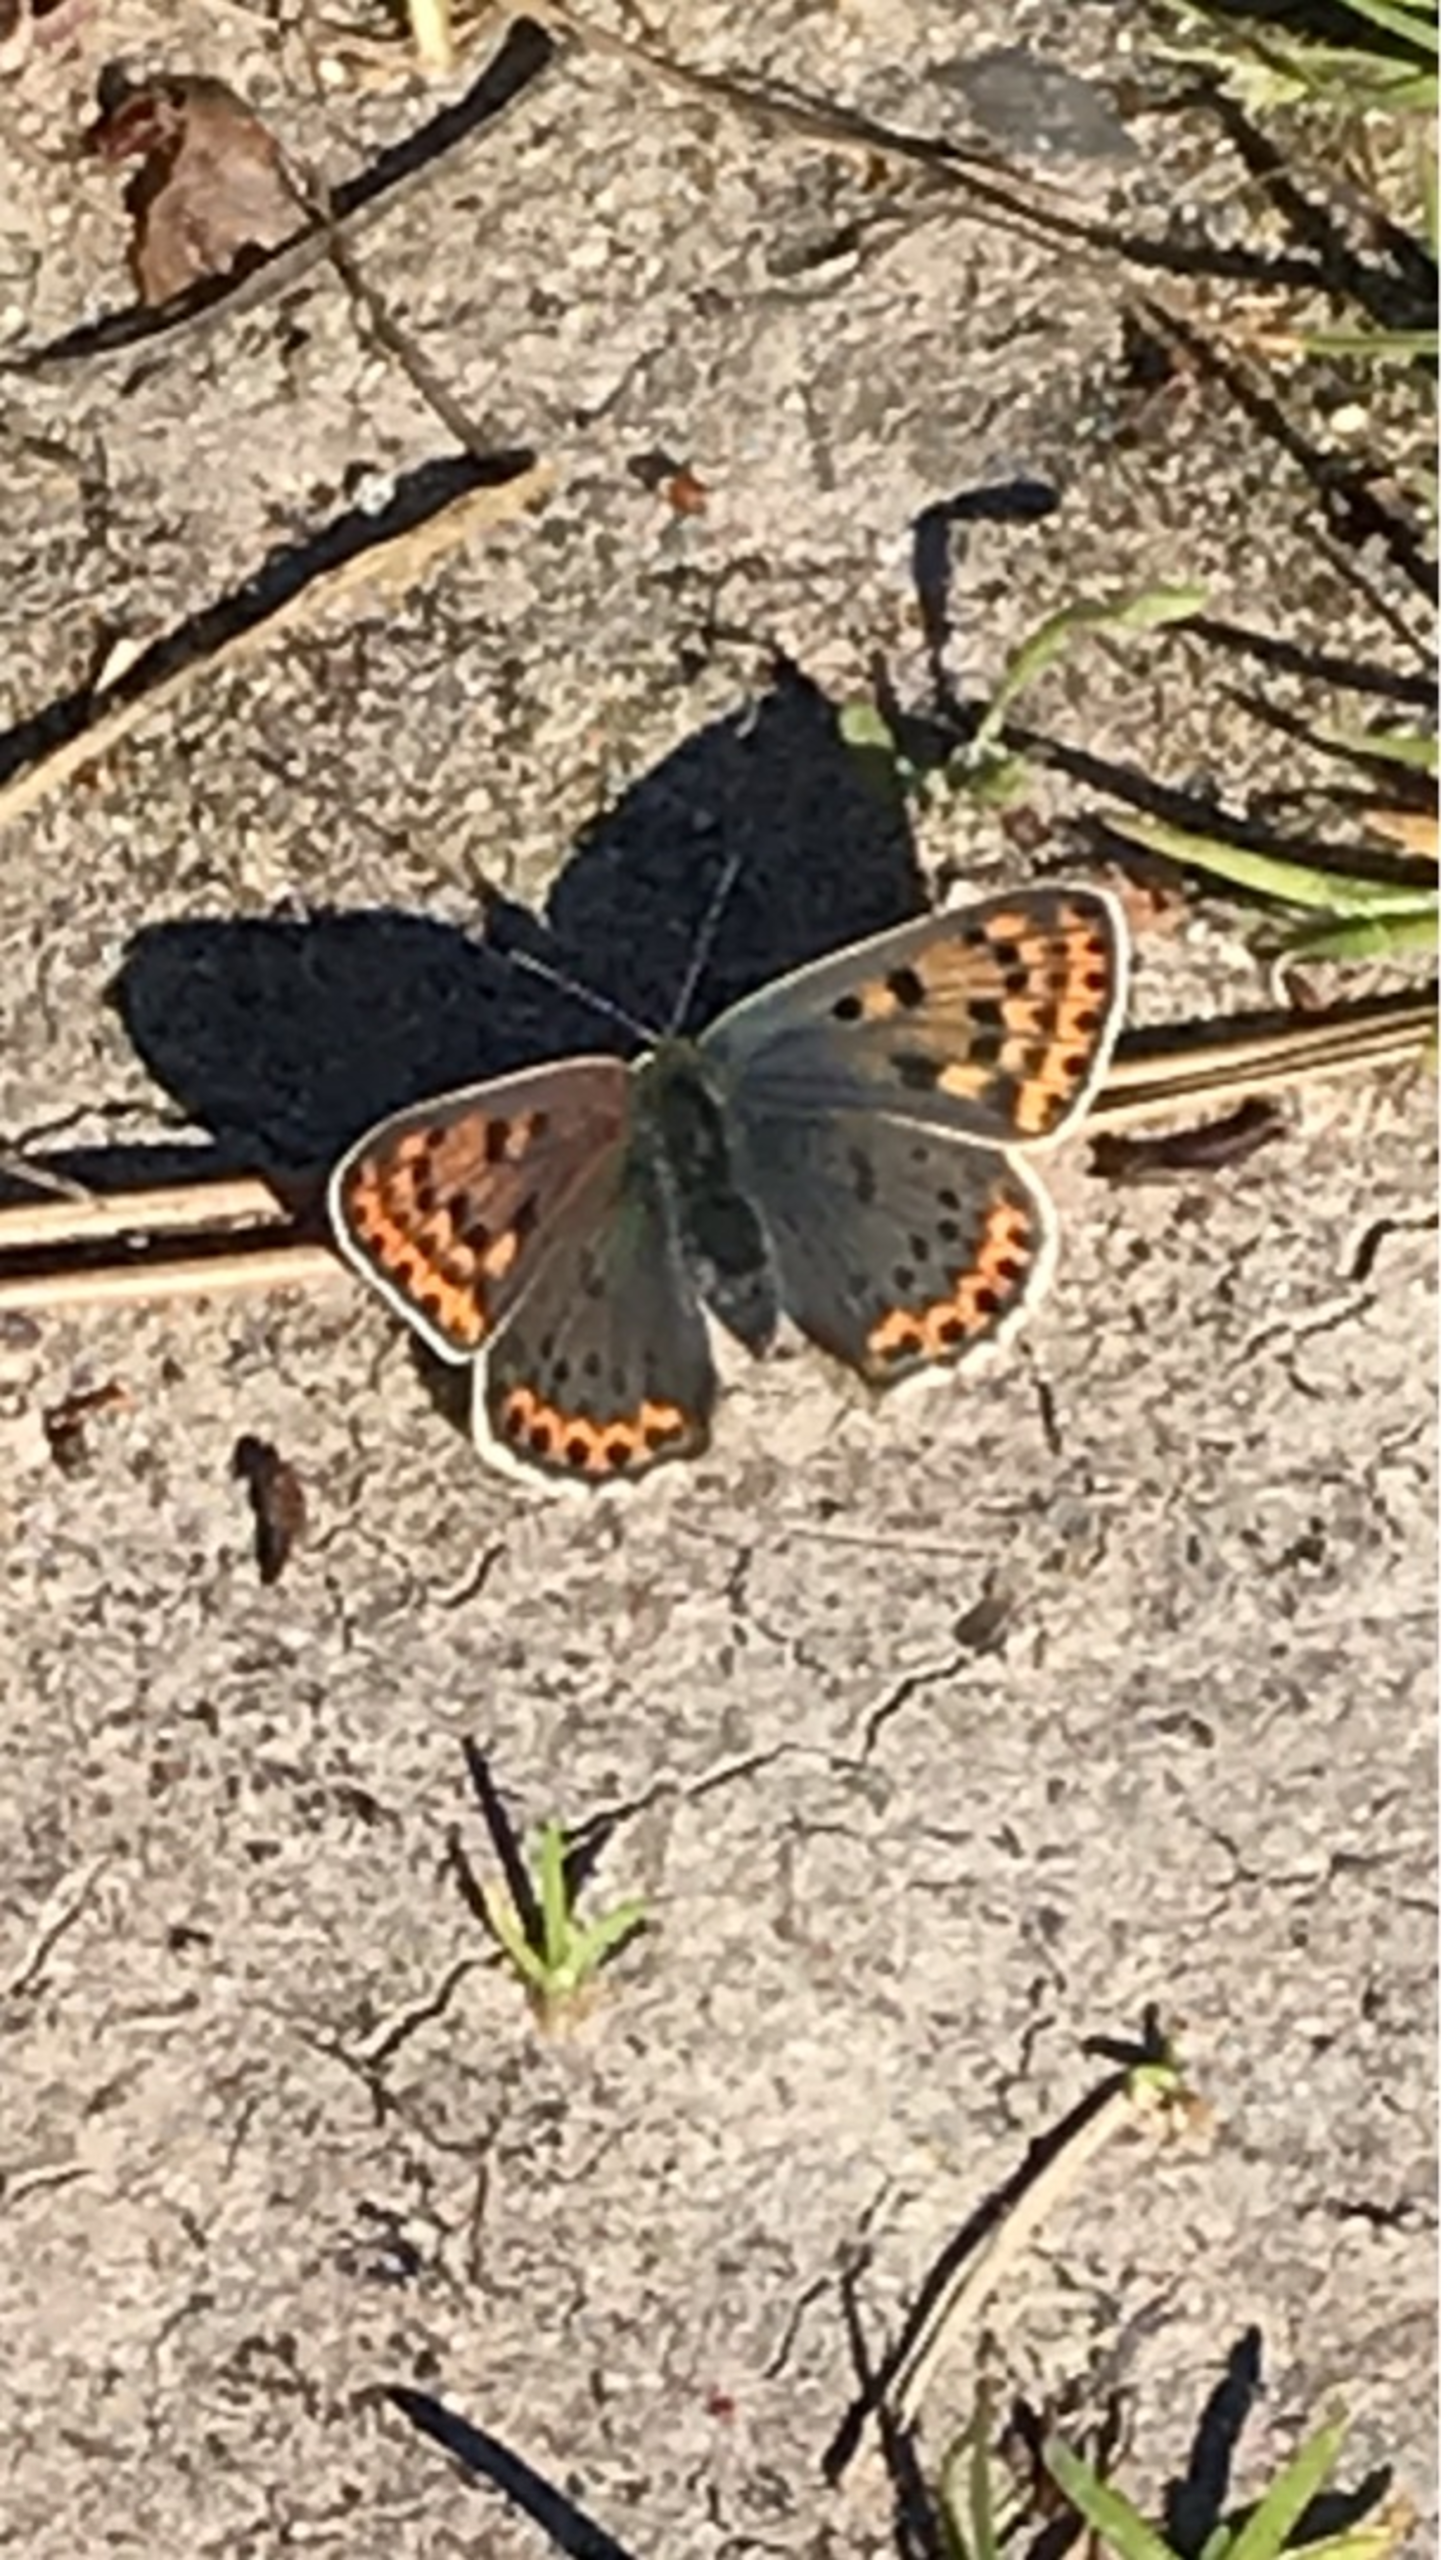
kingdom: Animalia
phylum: Arthropoda
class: Insecta
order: Lepidoptera
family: Lycaenidae
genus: Loweia
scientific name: Loweia tityrus
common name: Sort ildfugl
